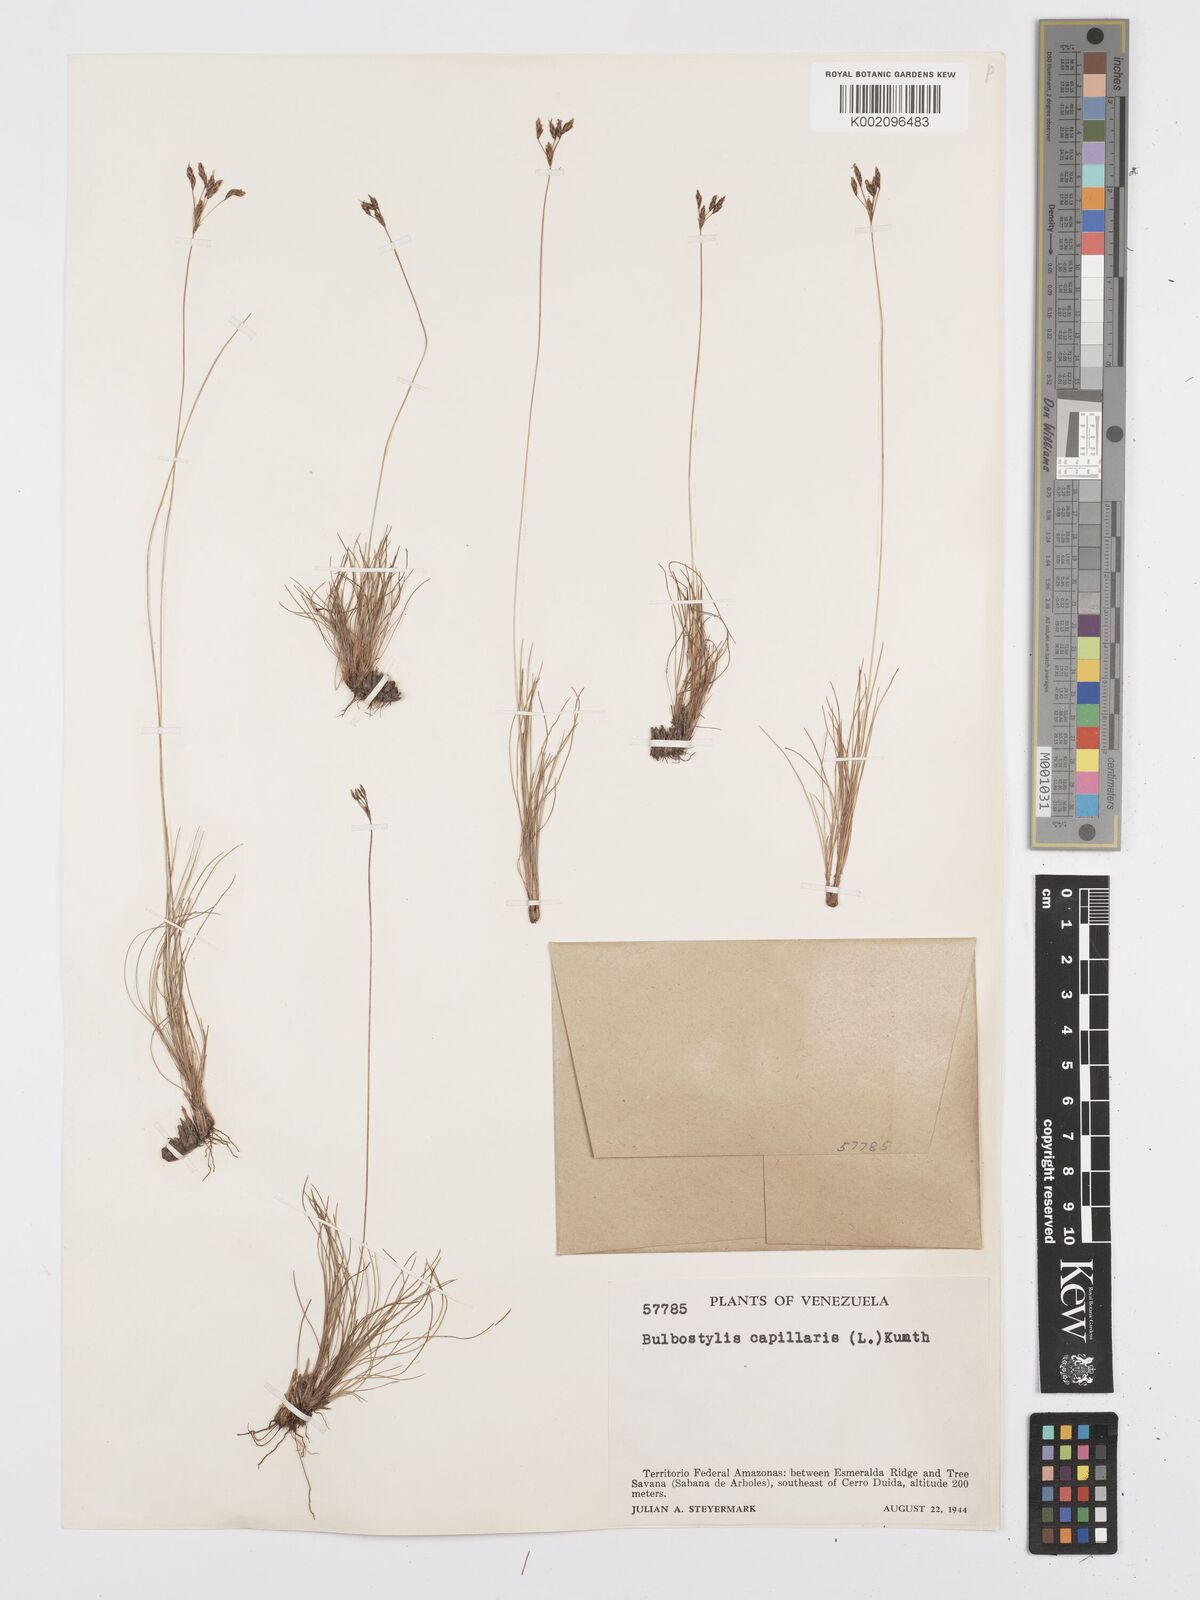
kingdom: Plantae
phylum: Tracheophyta
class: Liliopsida
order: Poales
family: Cyperaceae
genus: Bulbostylis
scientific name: Bulbostylis circinata
